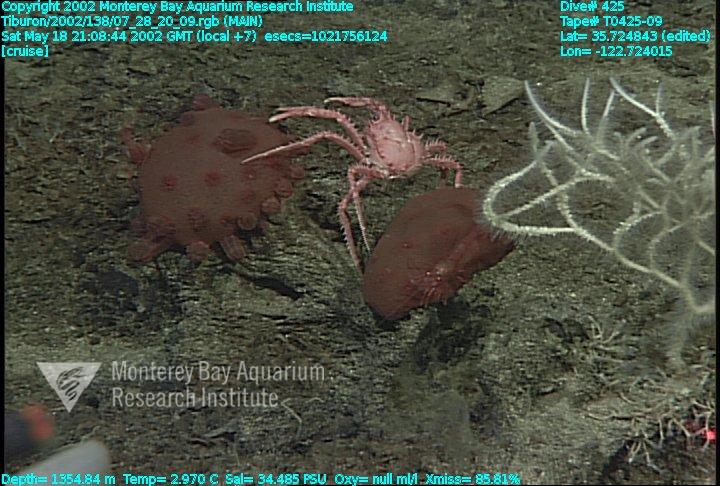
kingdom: Animalia
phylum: Porifera
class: Demospongiae
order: Poecilosclerida
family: Cladorhizidae
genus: Asbestopluma
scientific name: Asbestopluma monticola
